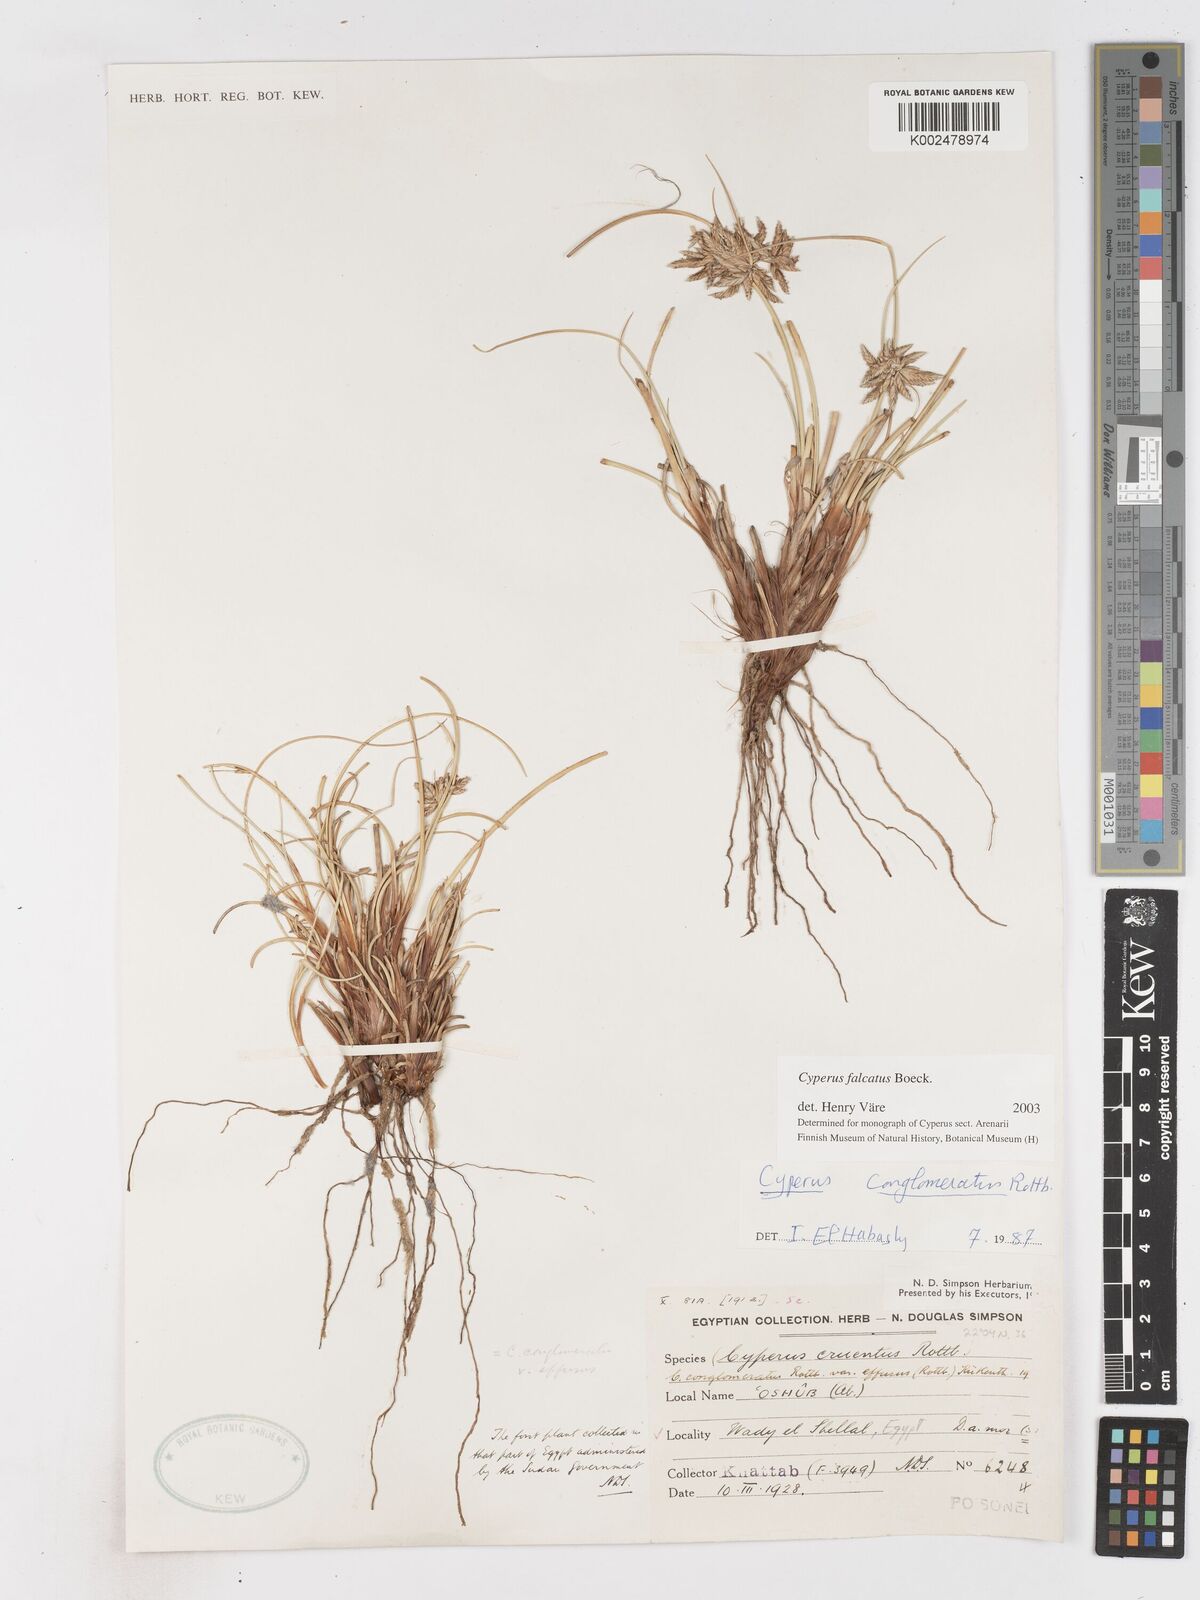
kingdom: Plantae
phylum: Tracheophyta
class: Liliopsida
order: Poales
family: Cyperaceae
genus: Cyperus
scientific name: Cyperus conglomeratus
